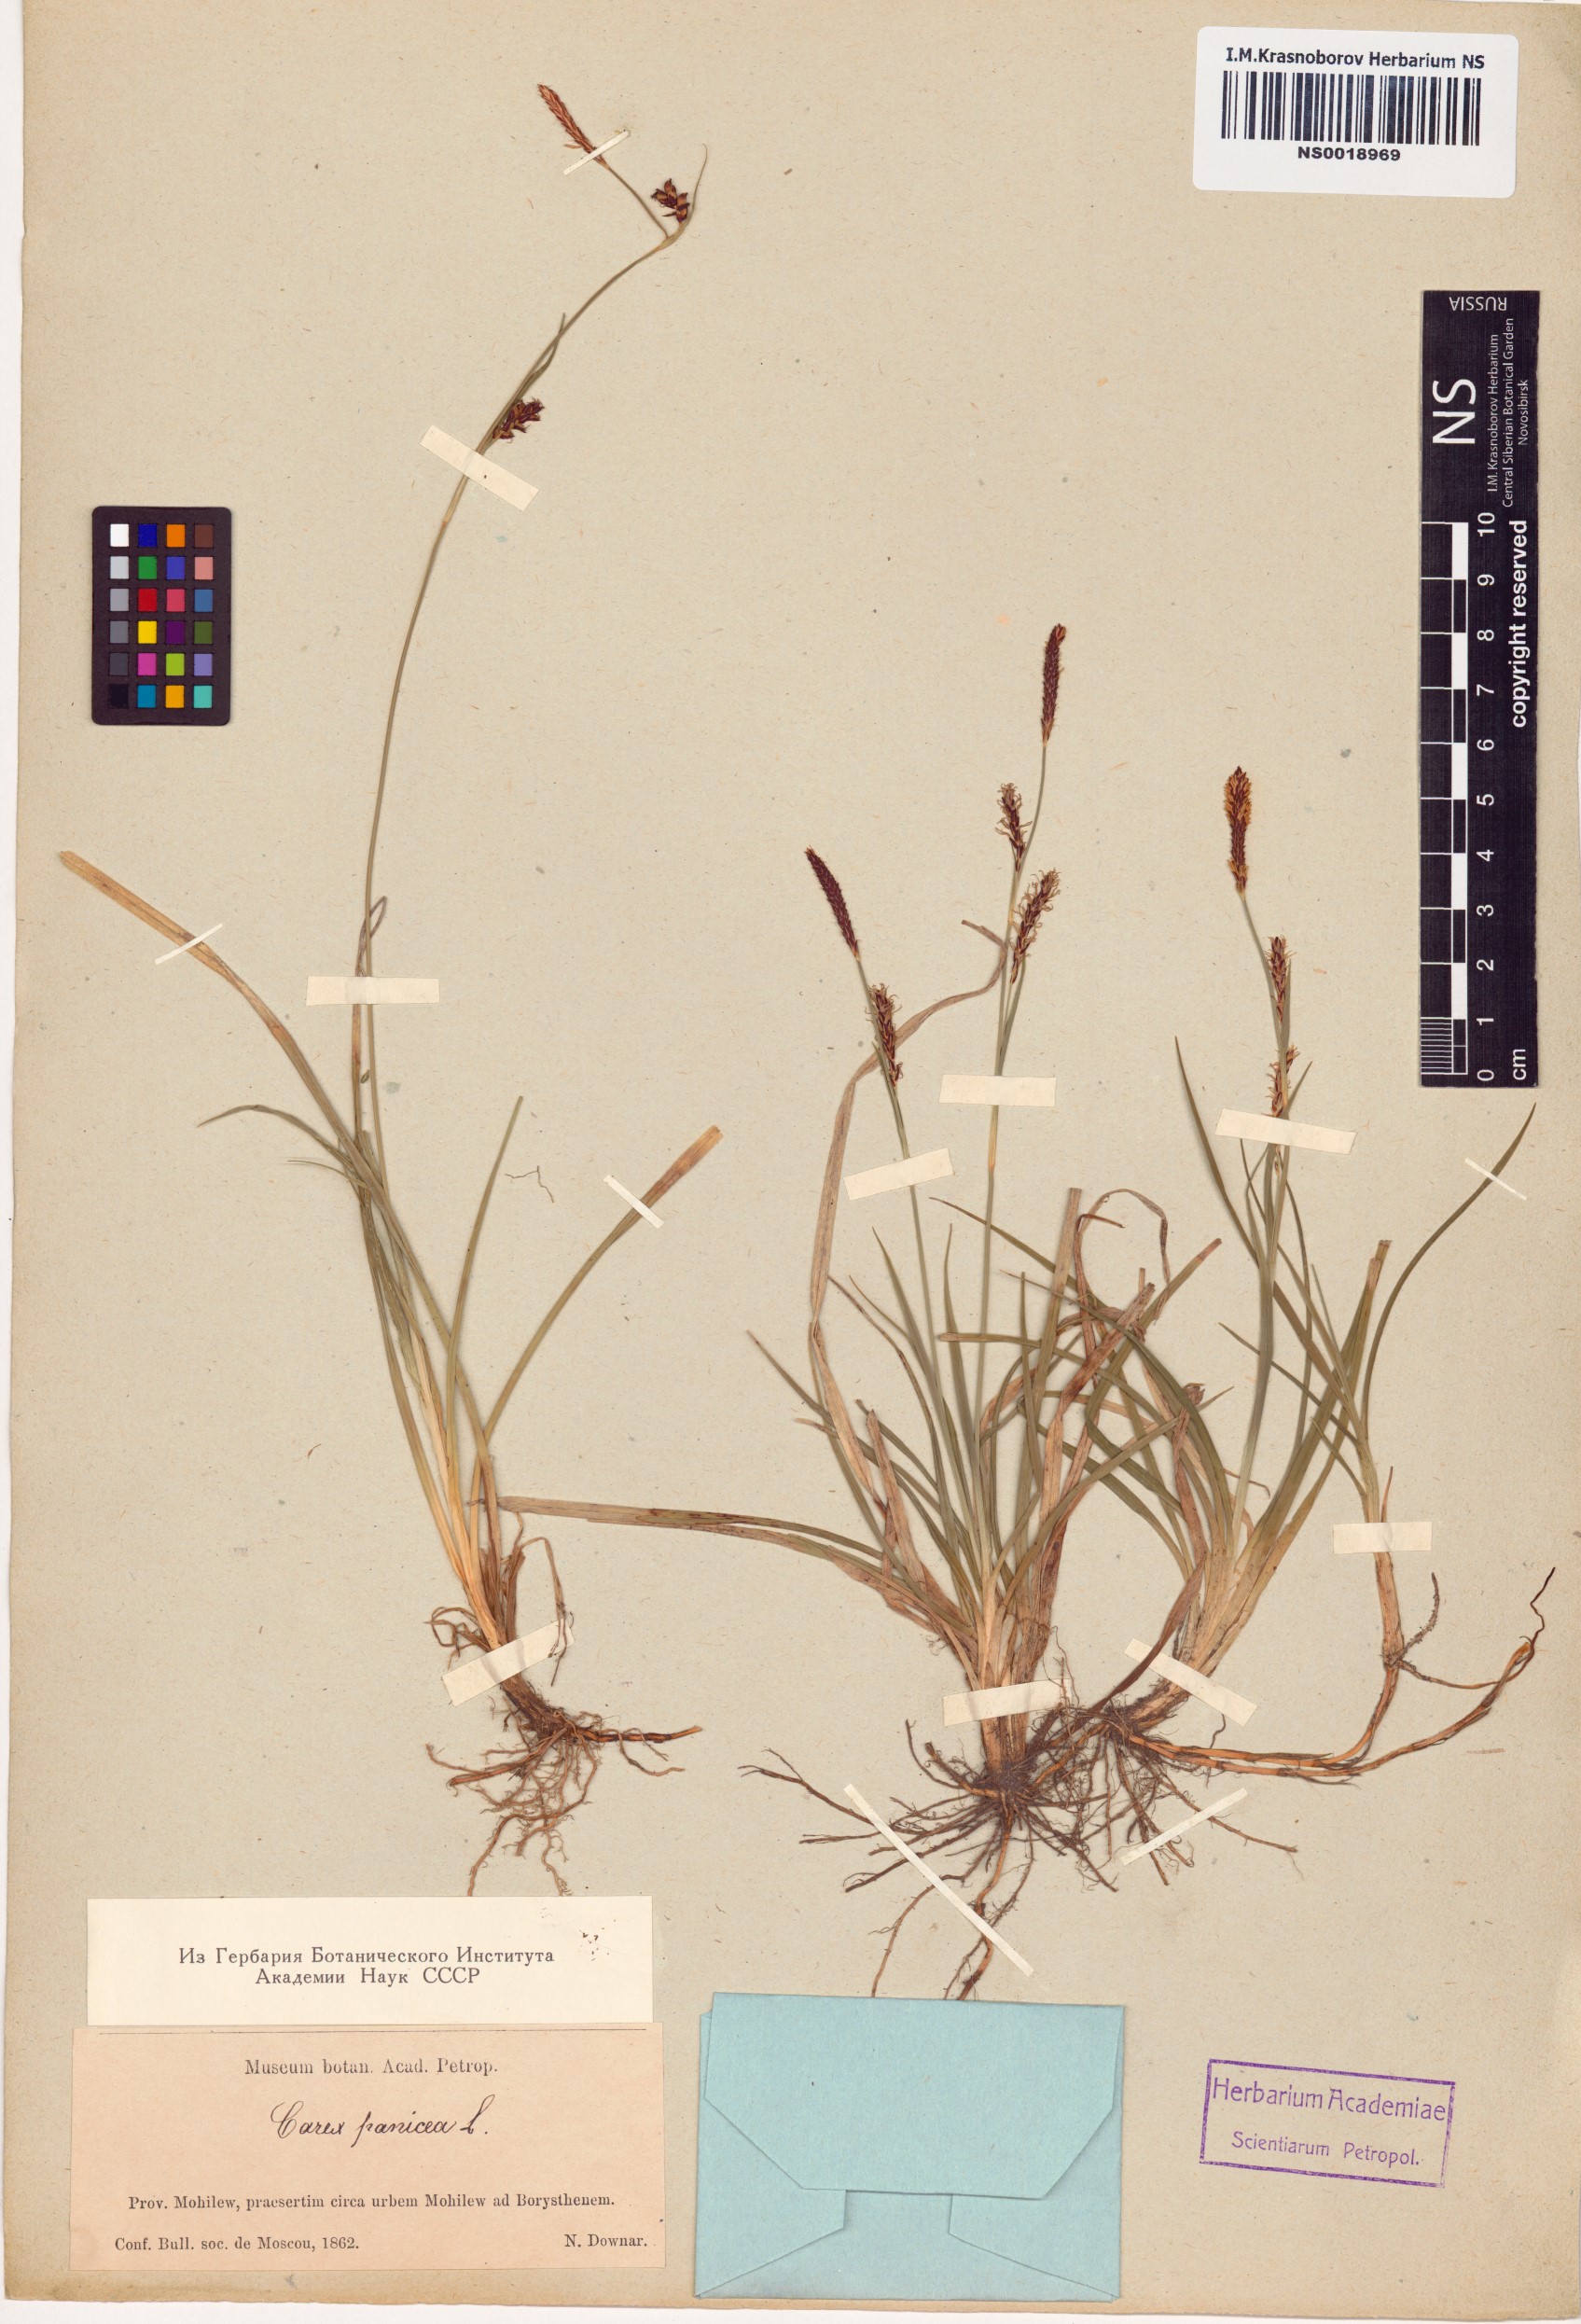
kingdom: Plantae
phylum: Tracheophyta
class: Liliopsida
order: Poales
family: Cyperaceae
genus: Carex
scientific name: Carex panicea
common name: Carnation sedge
